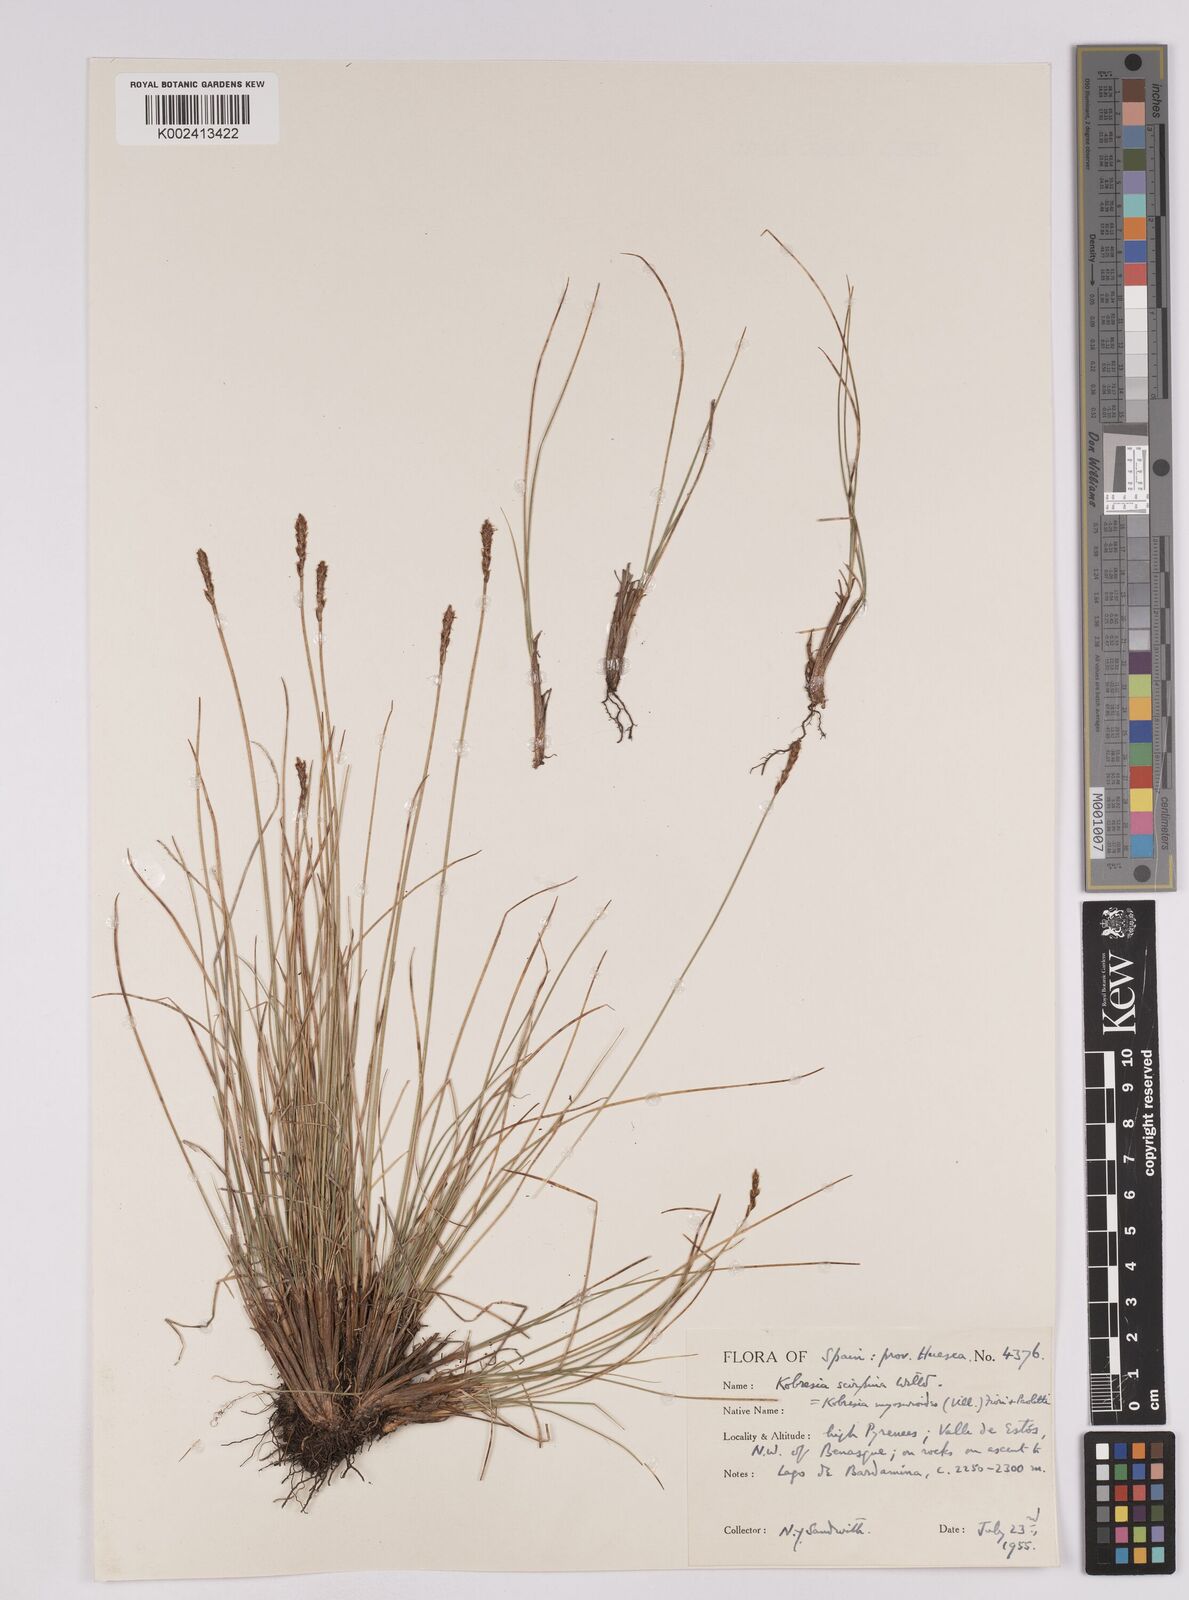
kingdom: Plantae
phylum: Tracheophyta
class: Liliopsida
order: Poales
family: Cyperaceae
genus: Carex
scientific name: Carex myosuroides
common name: Bellard's bog sedge
